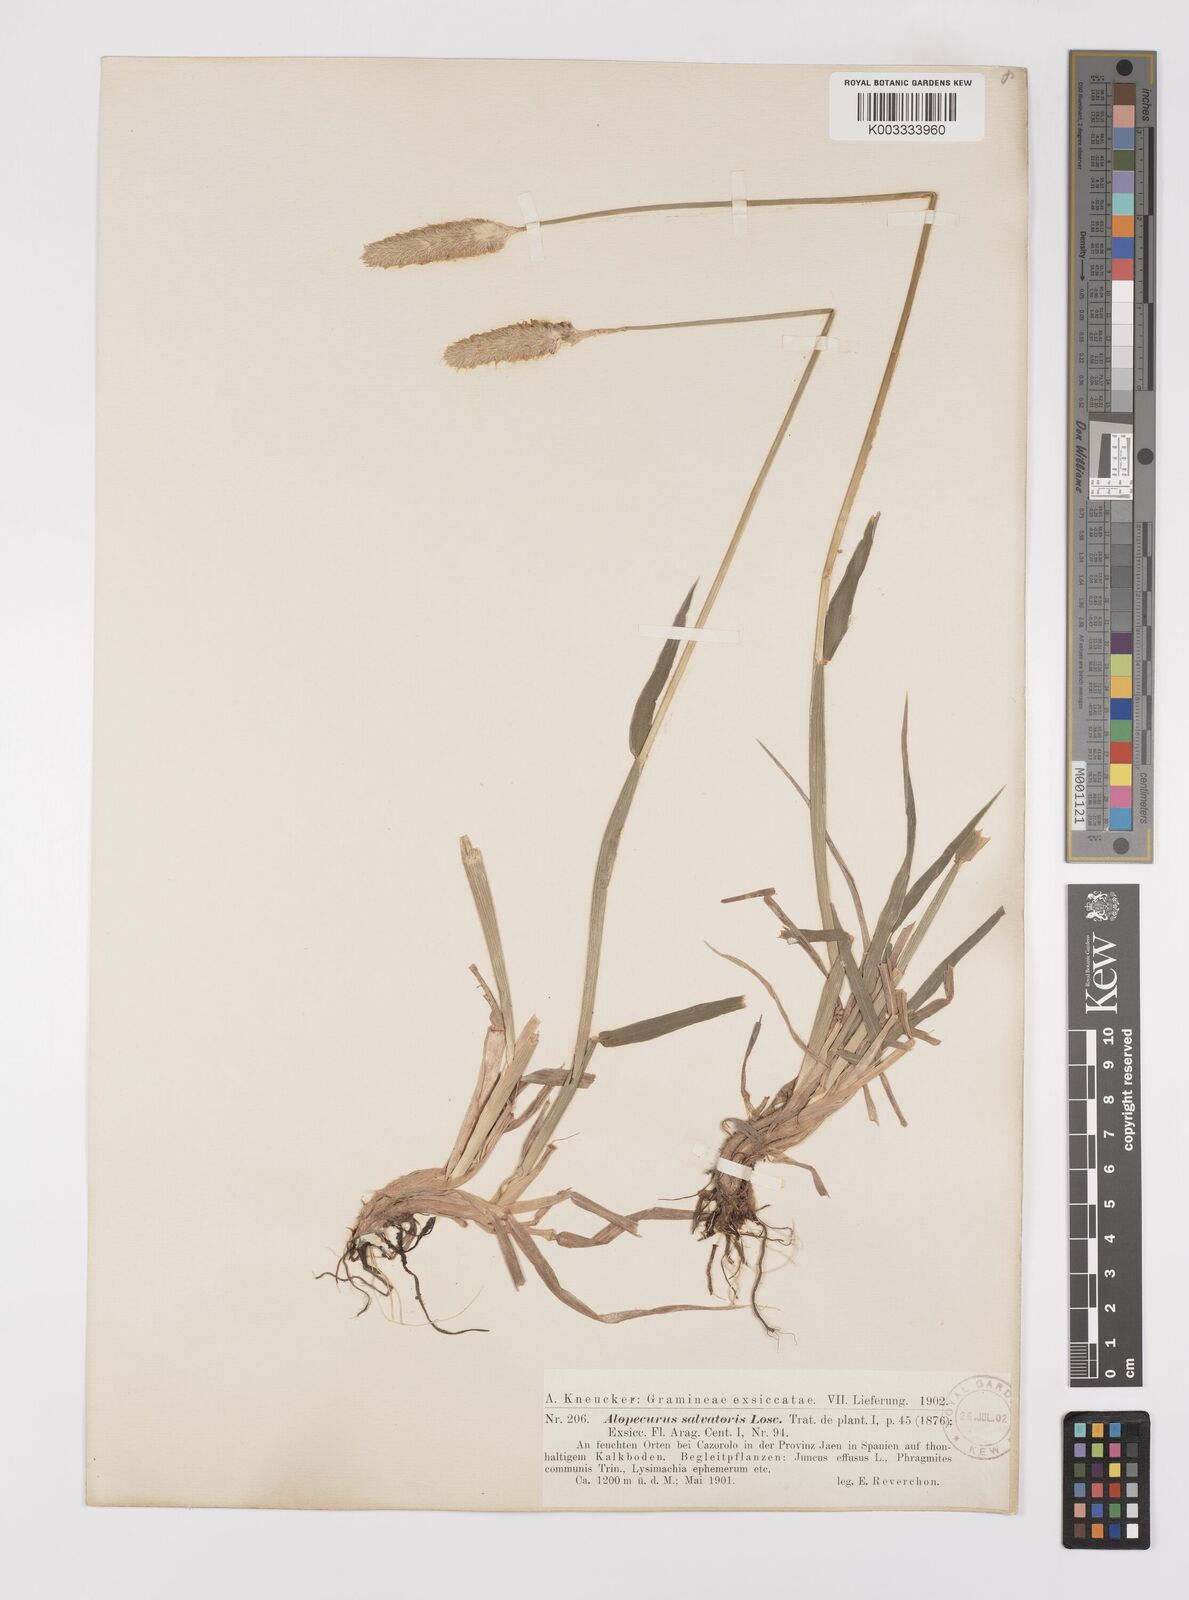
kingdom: Plantae
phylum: Tracheophyta
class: Liliopsida
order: Poales
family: Poaceae
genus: Alopecurus
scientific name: Alopecurus arundinaceus
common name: Creeping meadow foxtail
